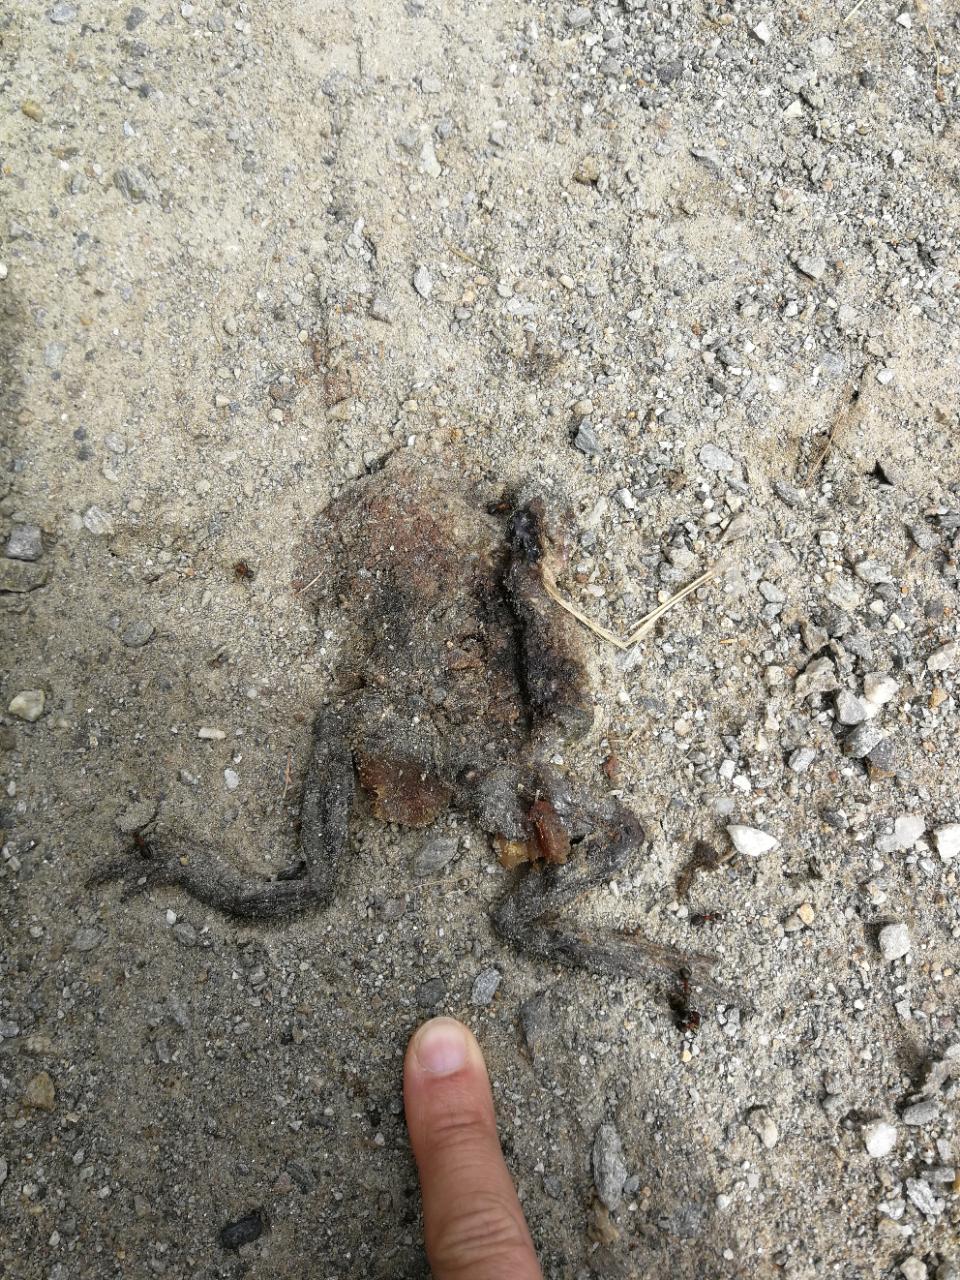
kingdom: Animalia
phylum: Chordata
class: Amphibia
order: Anura
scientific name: Anura
